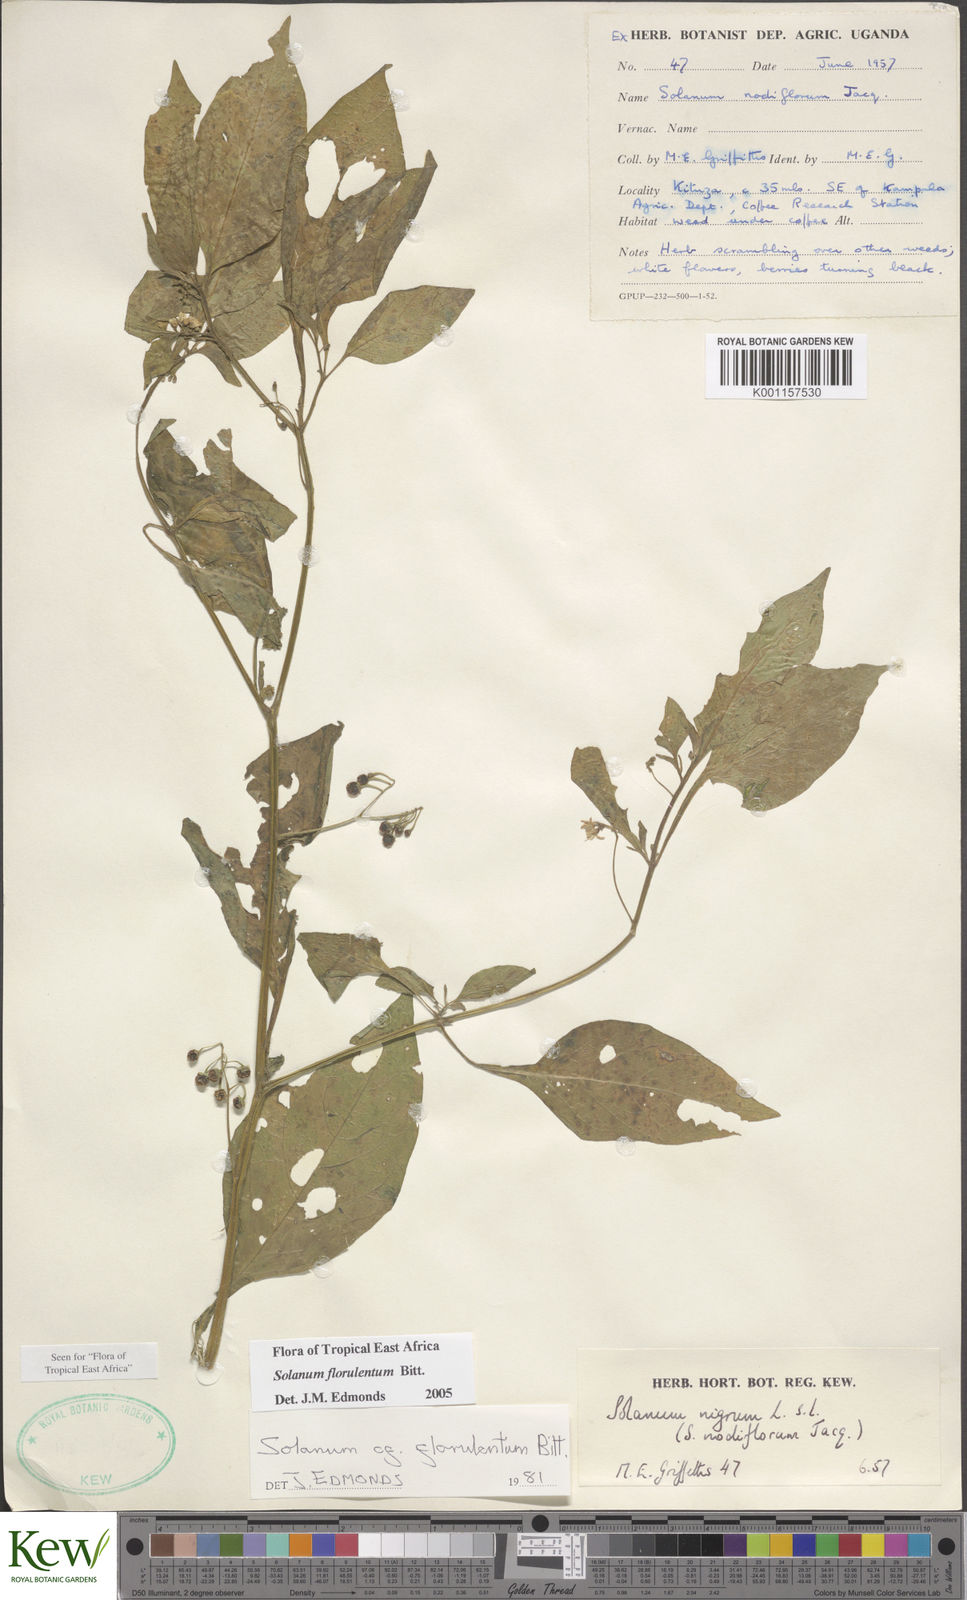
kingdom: Plantae
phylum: Tracheophyta
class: Magnoliopsida
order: Solanales
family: Solanaceae
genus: Solanum
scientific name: Solanum tarderemotum
